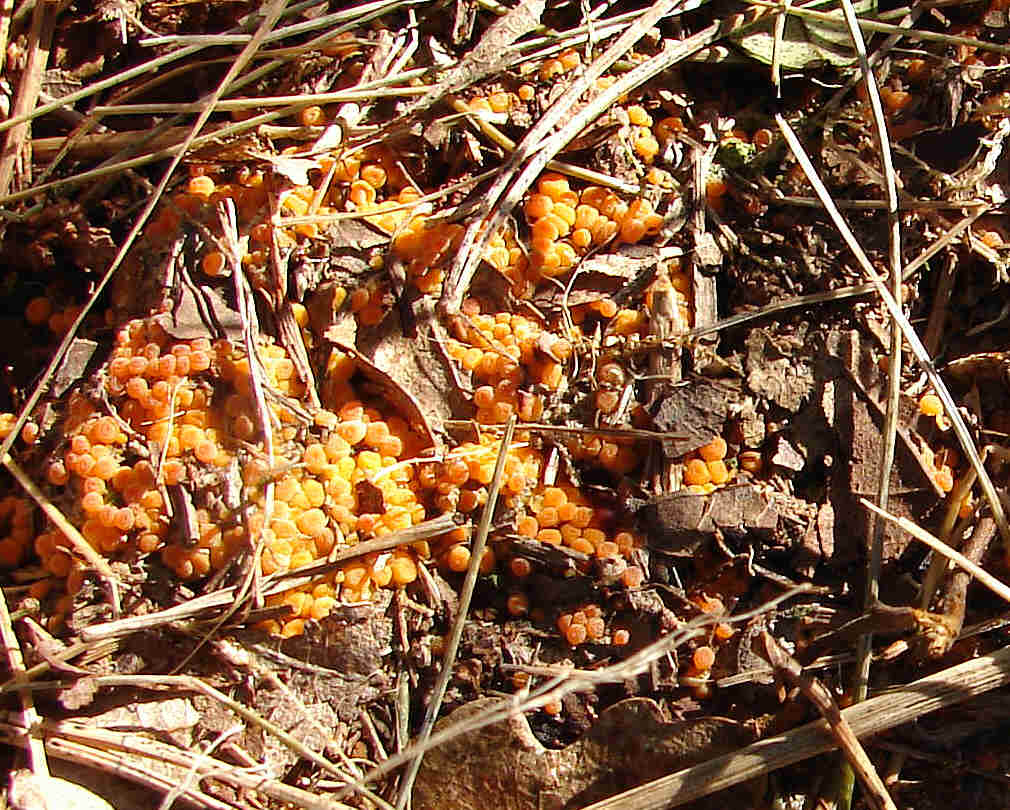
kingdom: Fungi
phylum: Ascomycota
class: Pezizomycetes
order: Pezizales
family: Pyronemataceae
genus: Byssonectria
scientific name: Byssonectria terrestris
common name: hjortebæger
